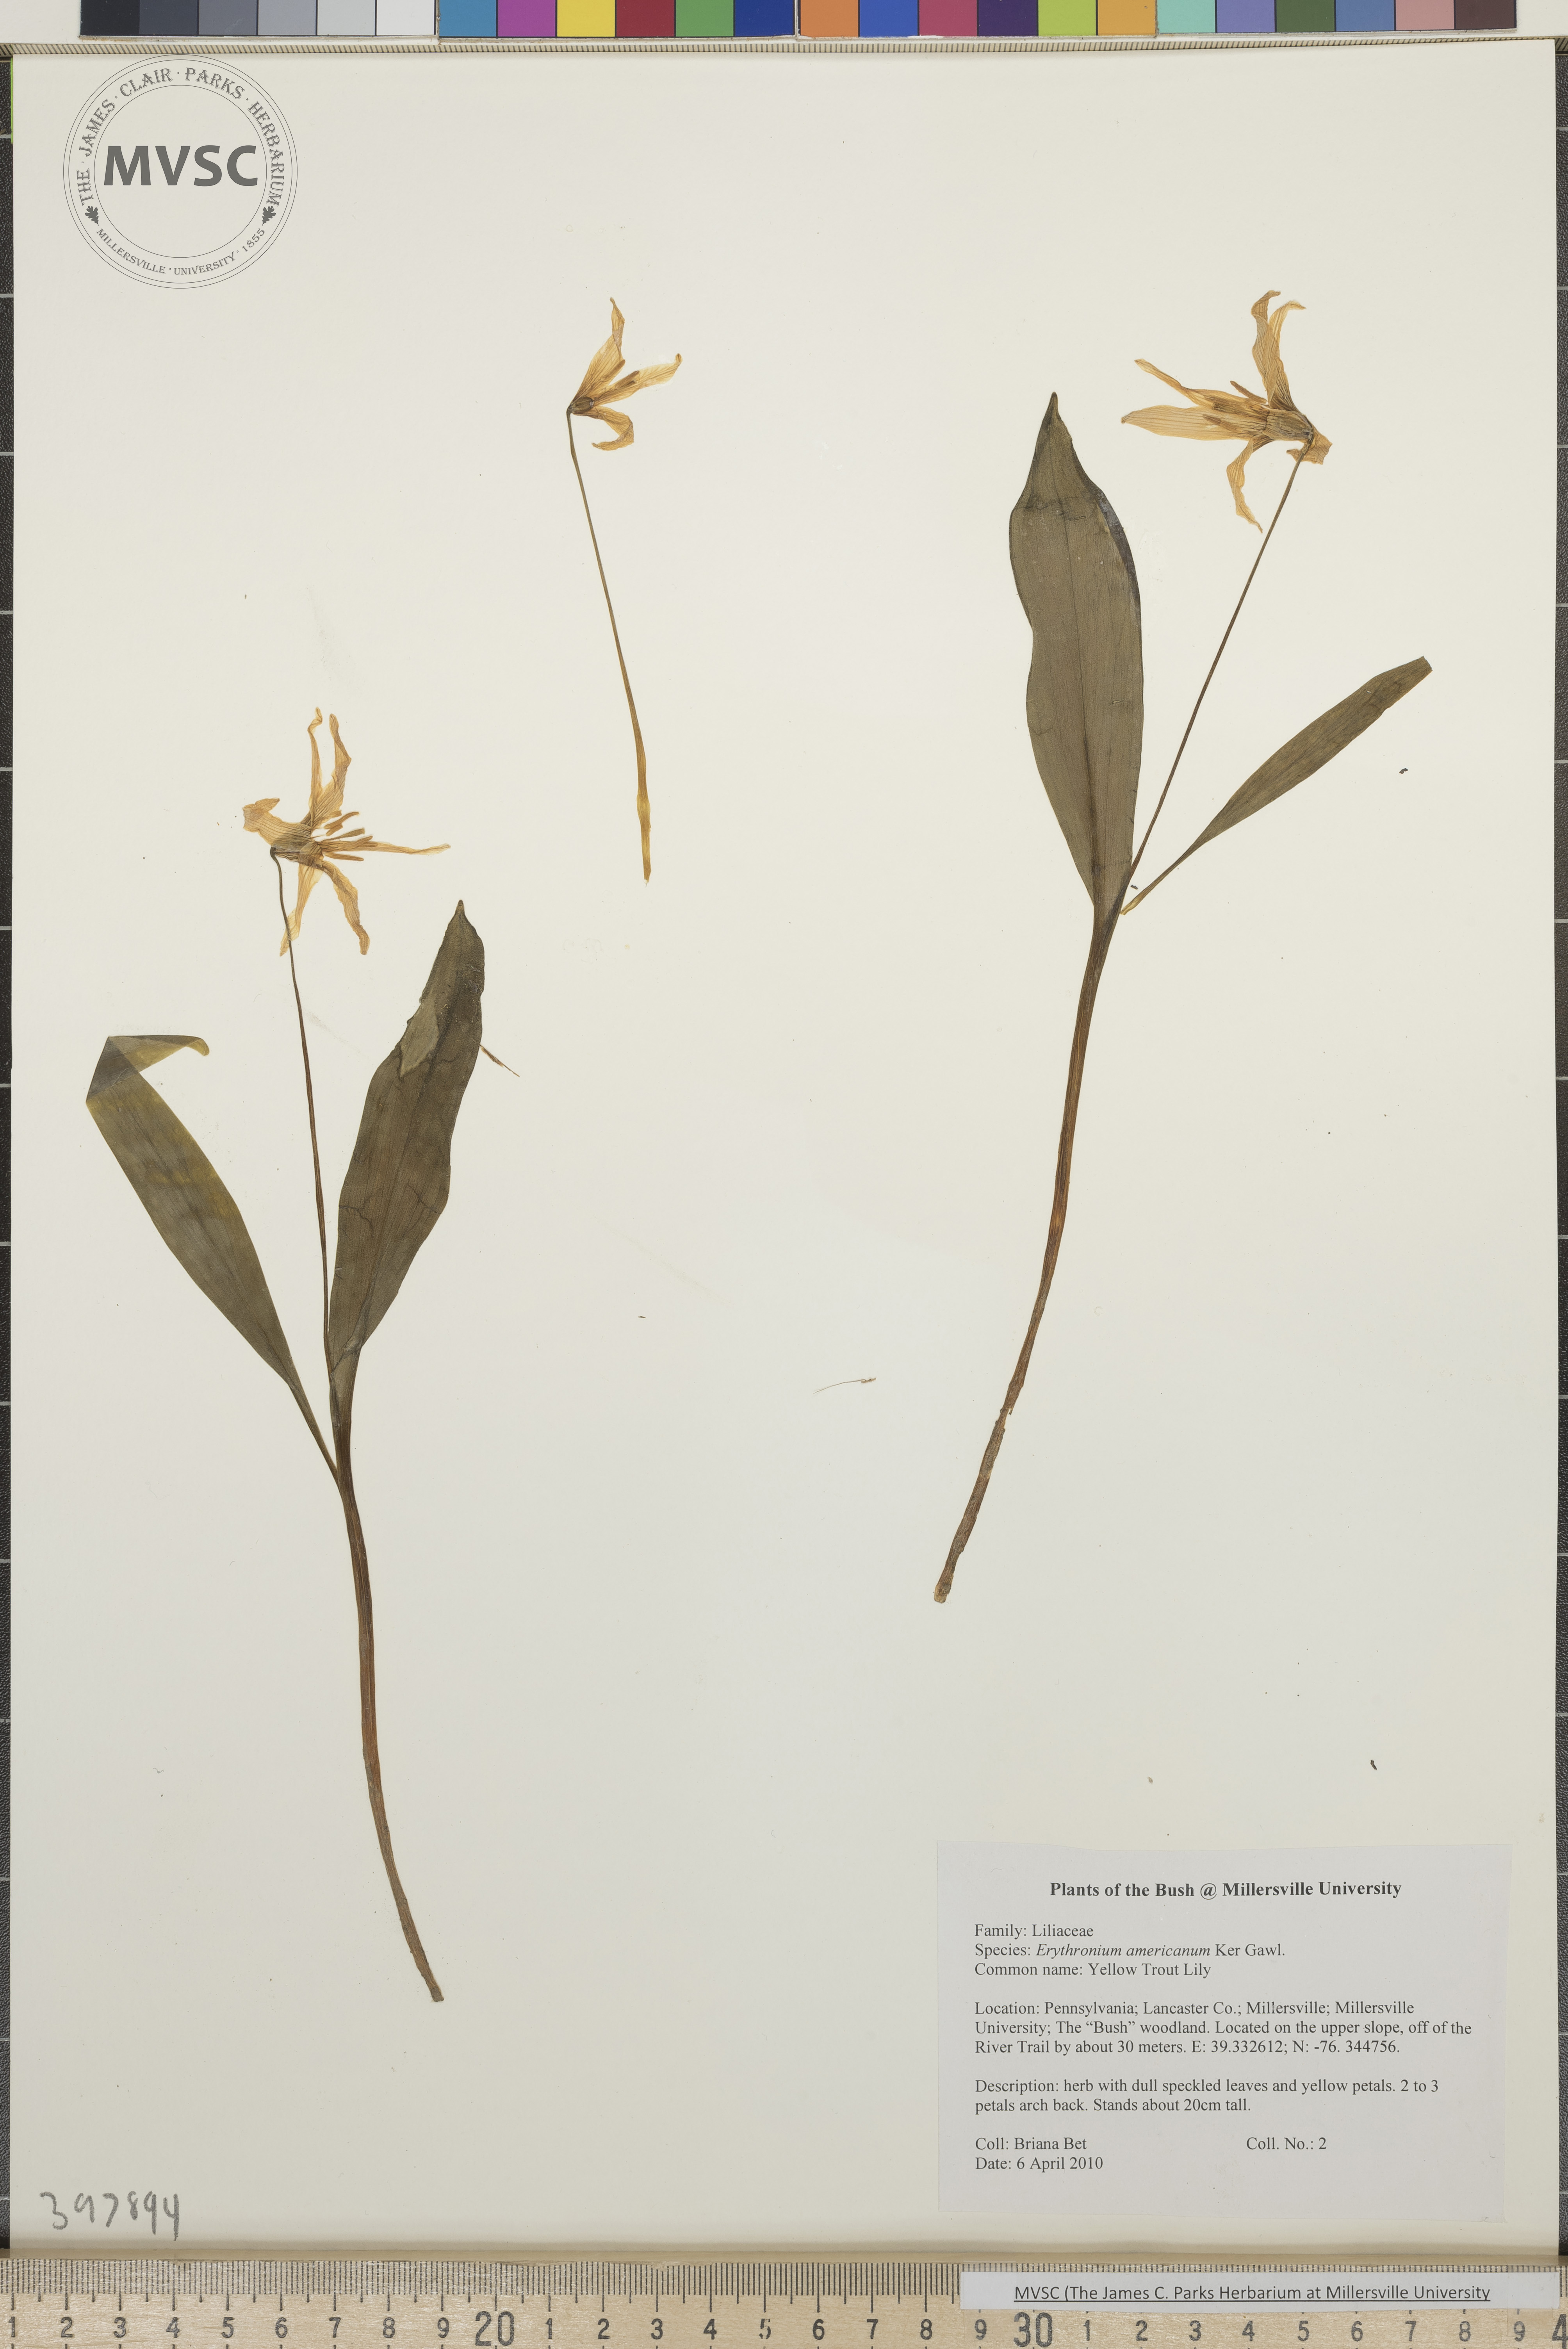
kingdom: Plantae
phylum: Tracheophyta
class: Liliopsida
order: Liliales
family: Liliaceae
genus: Erythronium
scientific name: Erythronium americanum
